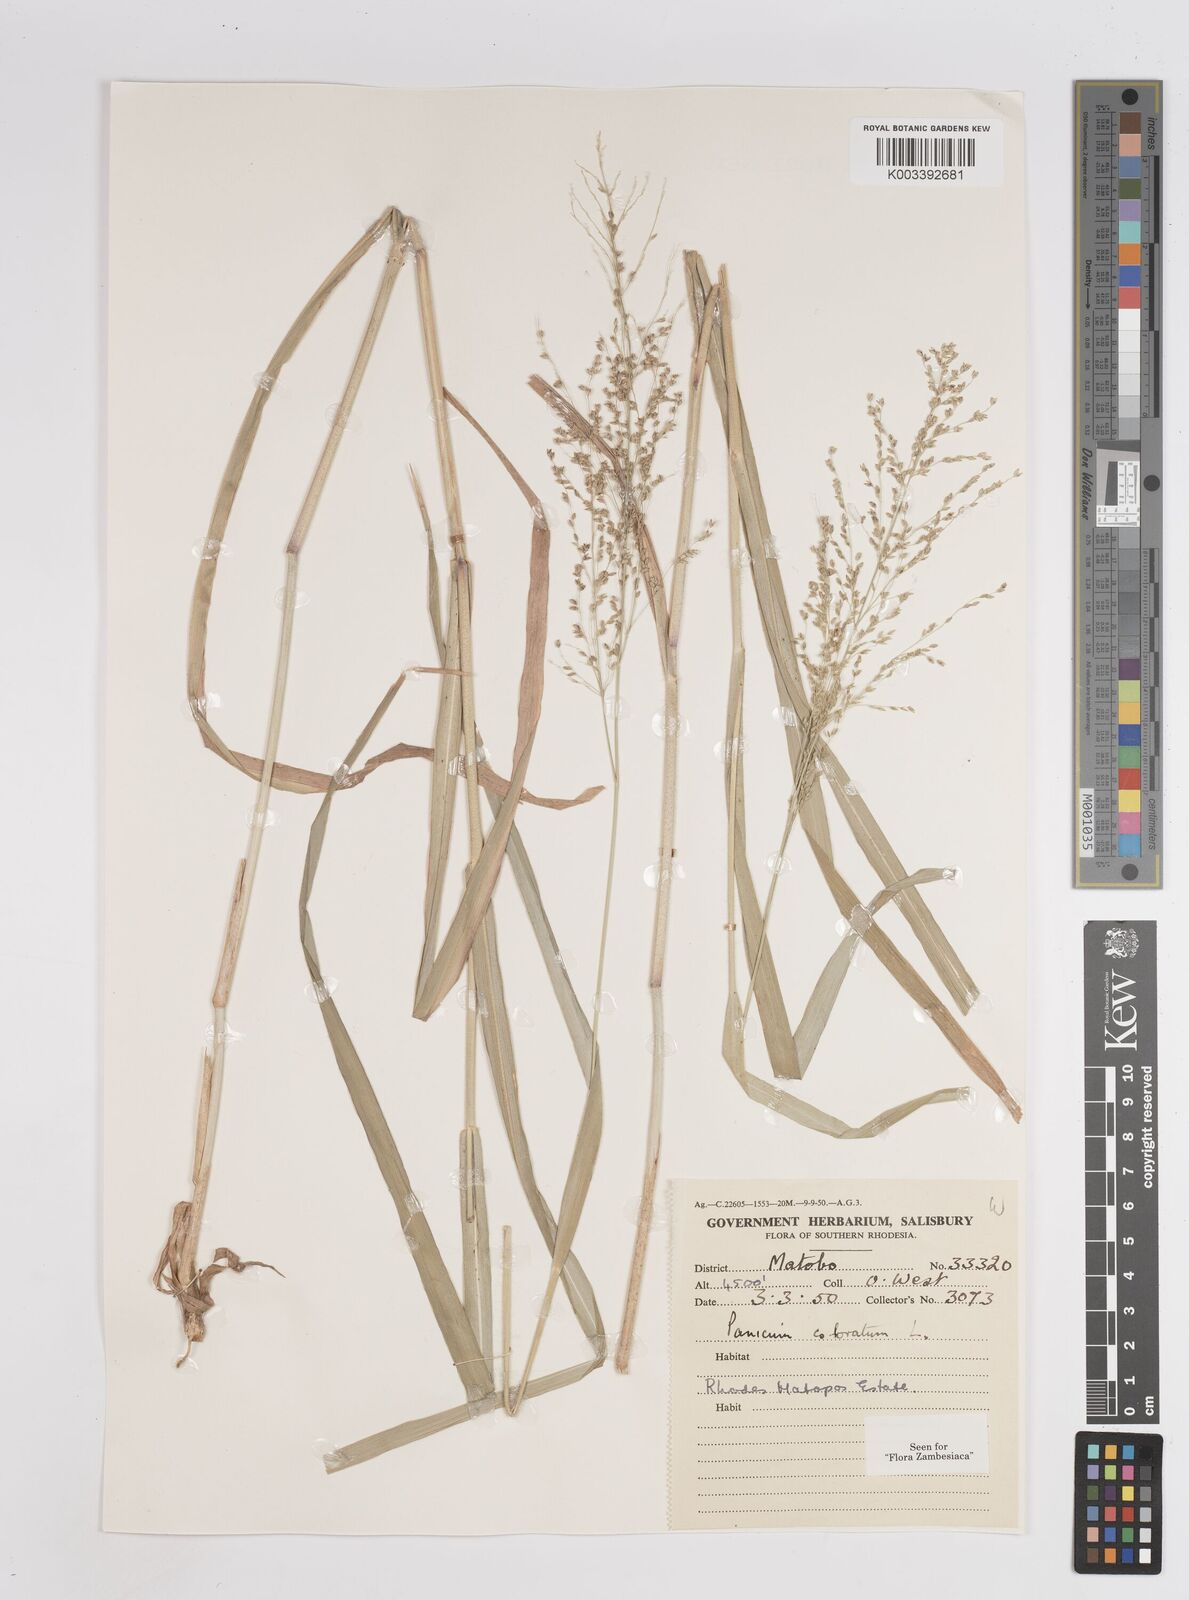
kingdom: Plantae
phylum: Tracheophyta
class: Liliopsida
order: Poales
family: Poaceae
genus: Panicum
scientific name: Panicum
